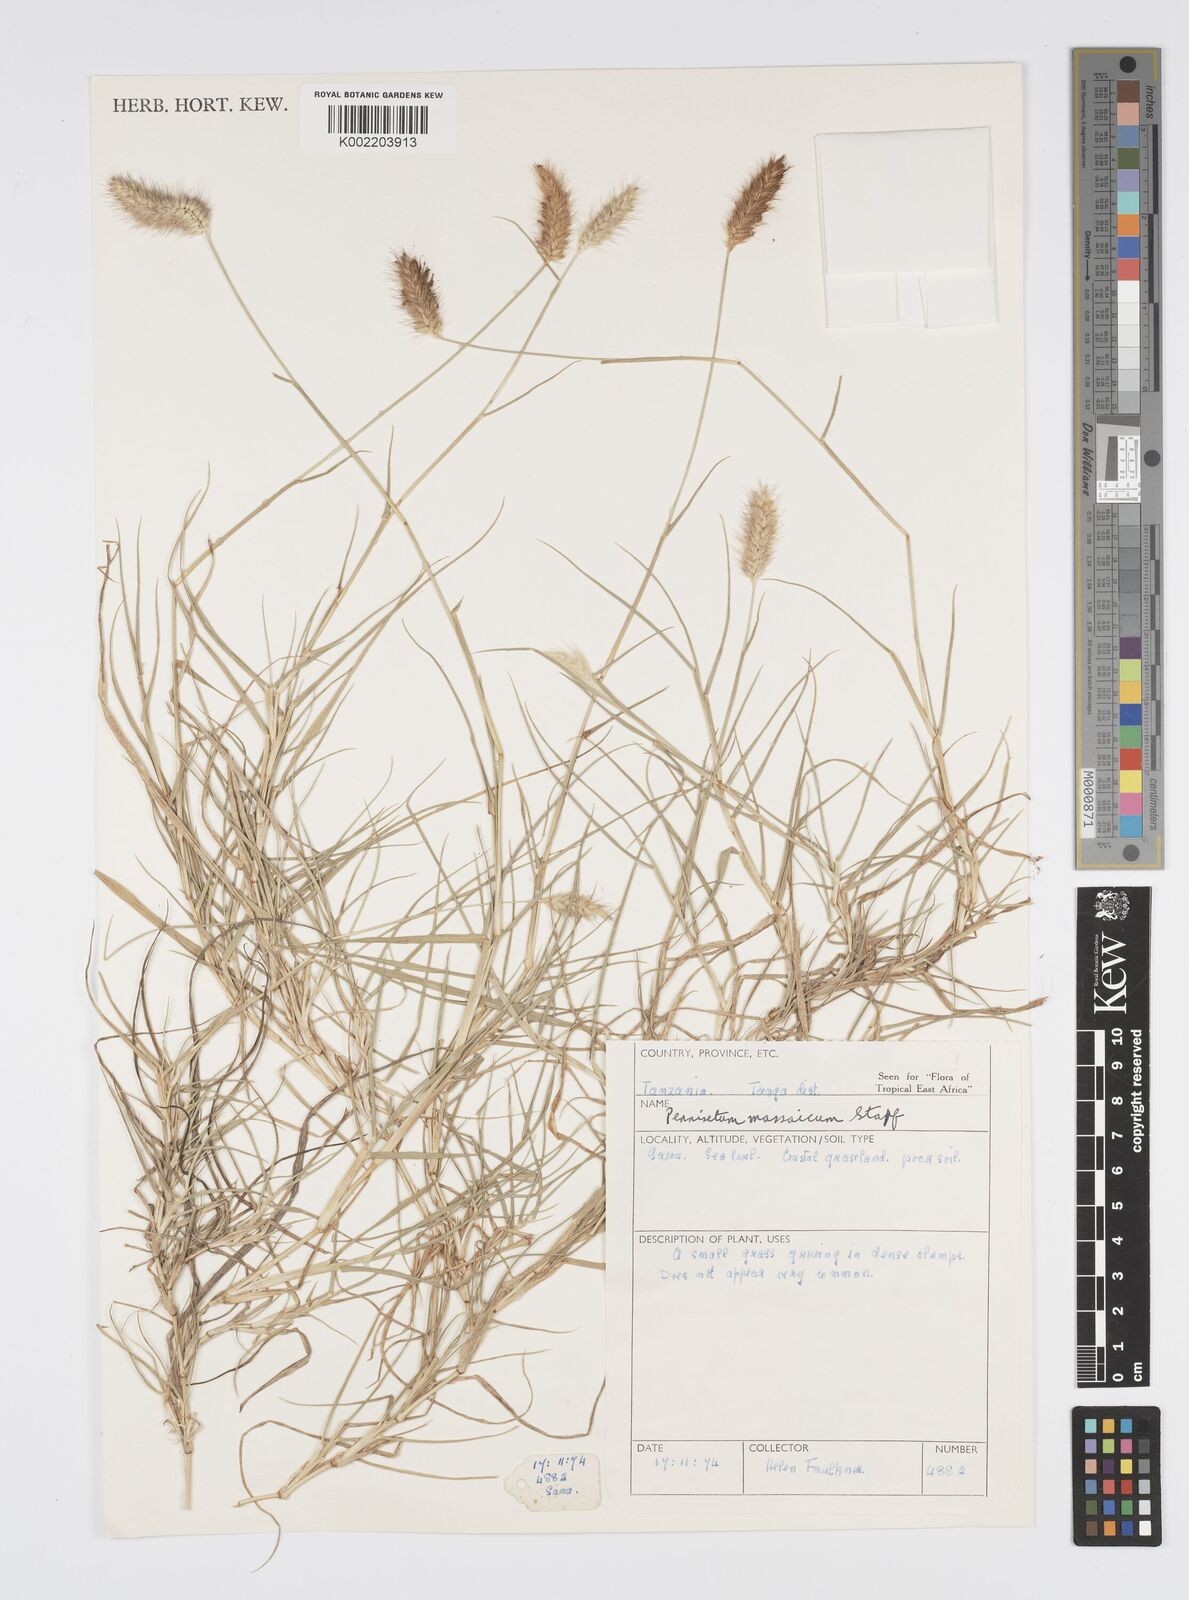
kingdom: Plantae
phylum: Tracheophyta
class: Liliopsida
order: Poales
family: Poaceae
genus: Cenchrus
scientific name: Cenchrus massaicus
